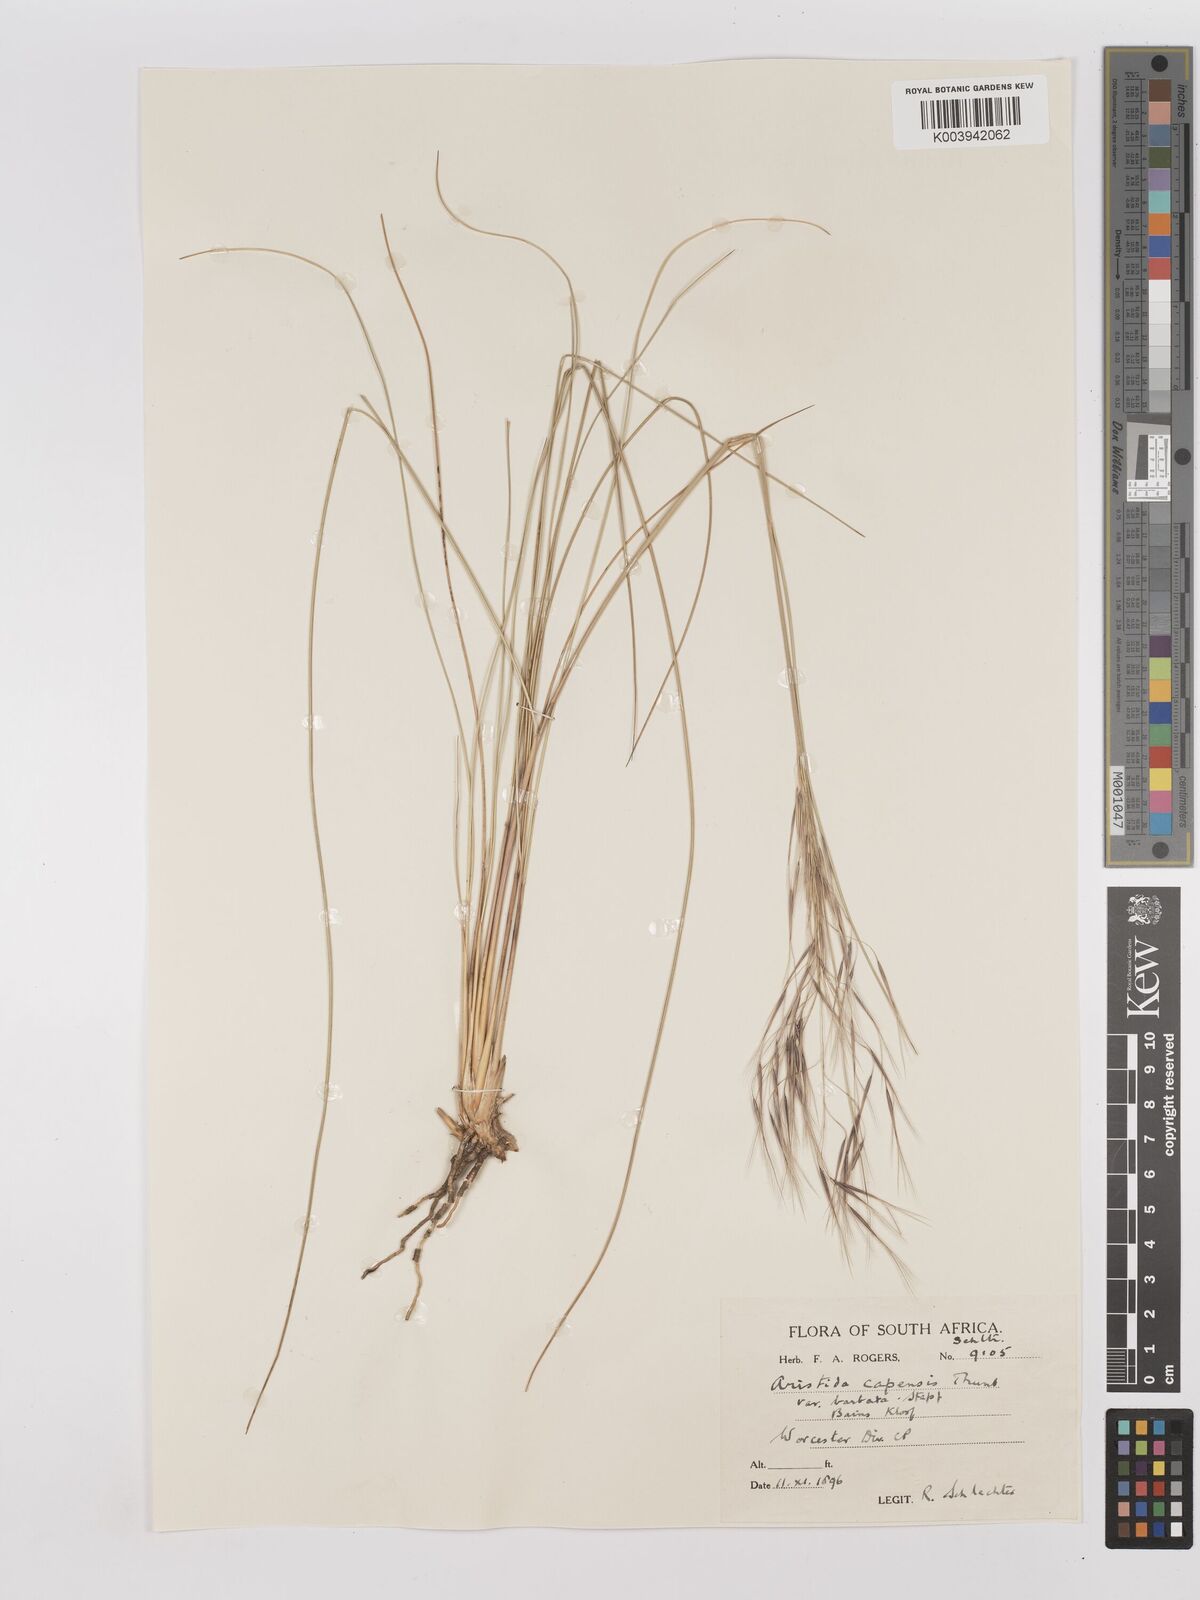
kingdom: Plantae
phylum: Tracheophyta
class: Liliopsida
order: Poales
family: Poaceae
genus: Stipagrostis
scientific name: Stipagrostis zeyheri
